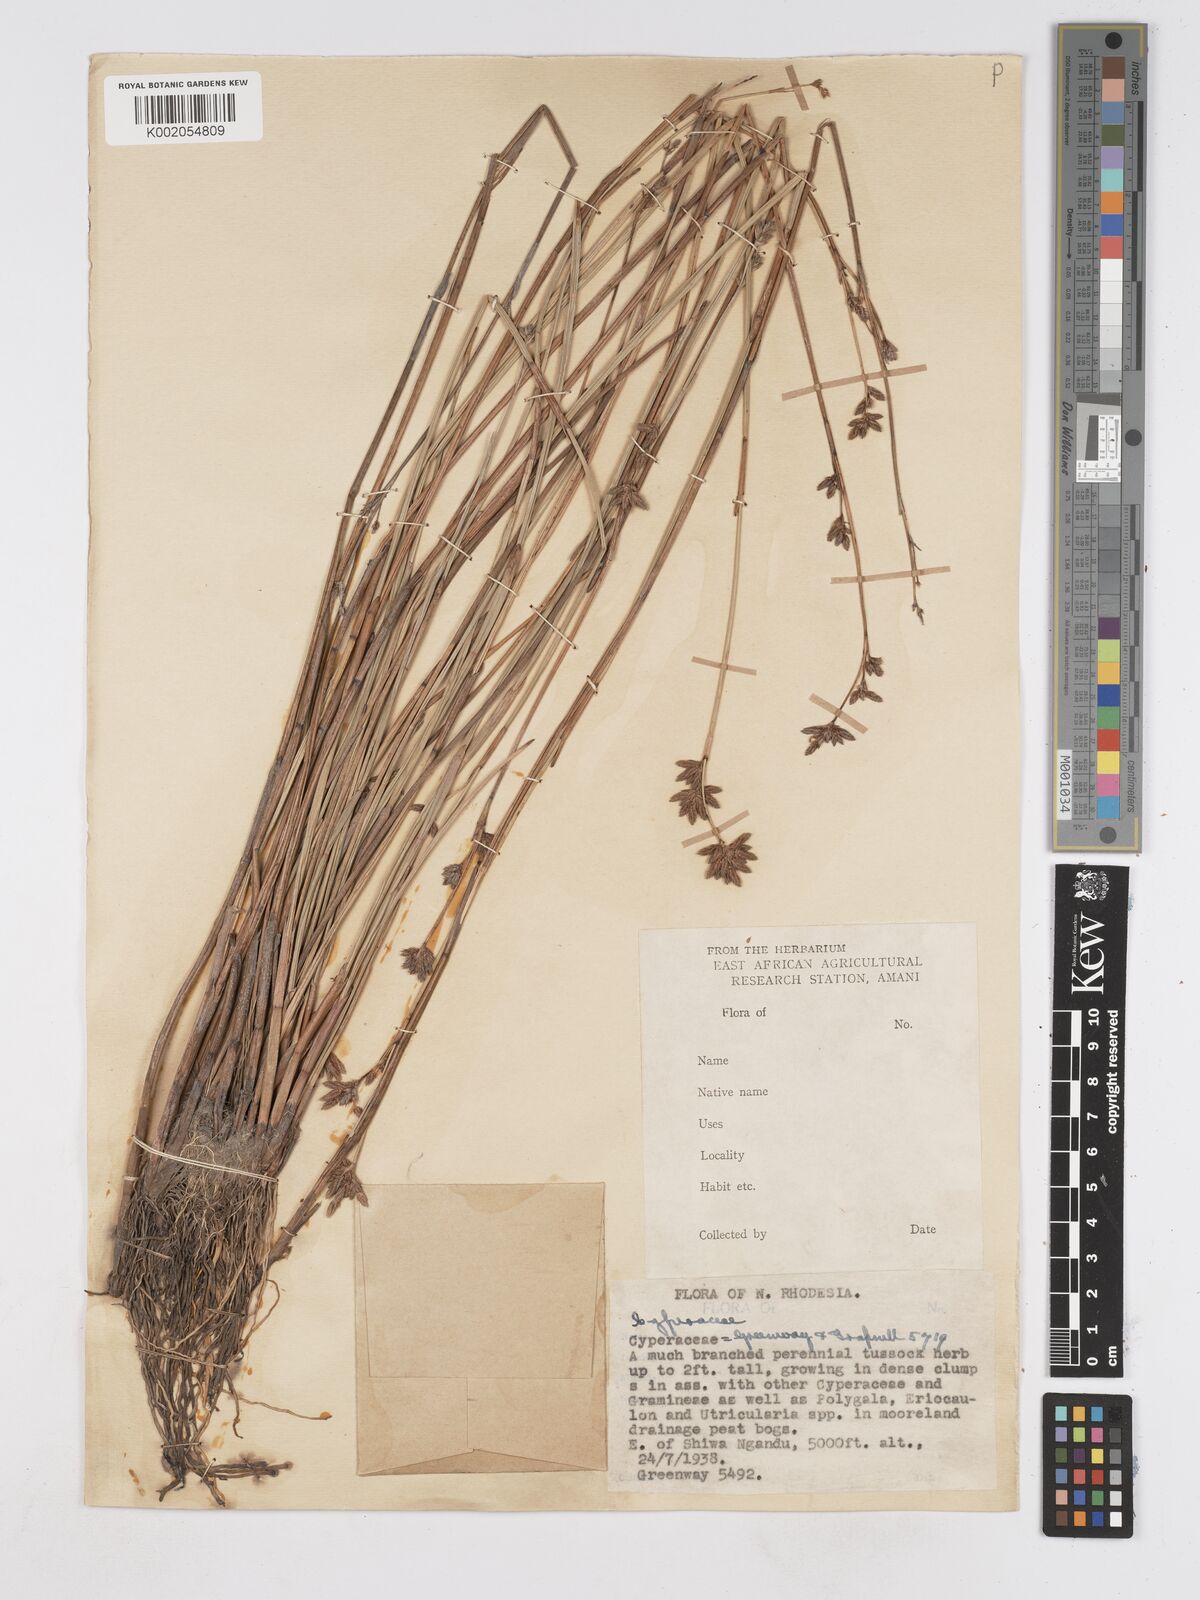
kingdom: Plantae
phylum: Tracheophyta
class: Liliopsida
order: Poales
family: Cyperaceae
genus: Fuirena
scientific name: Fuirena stricta
